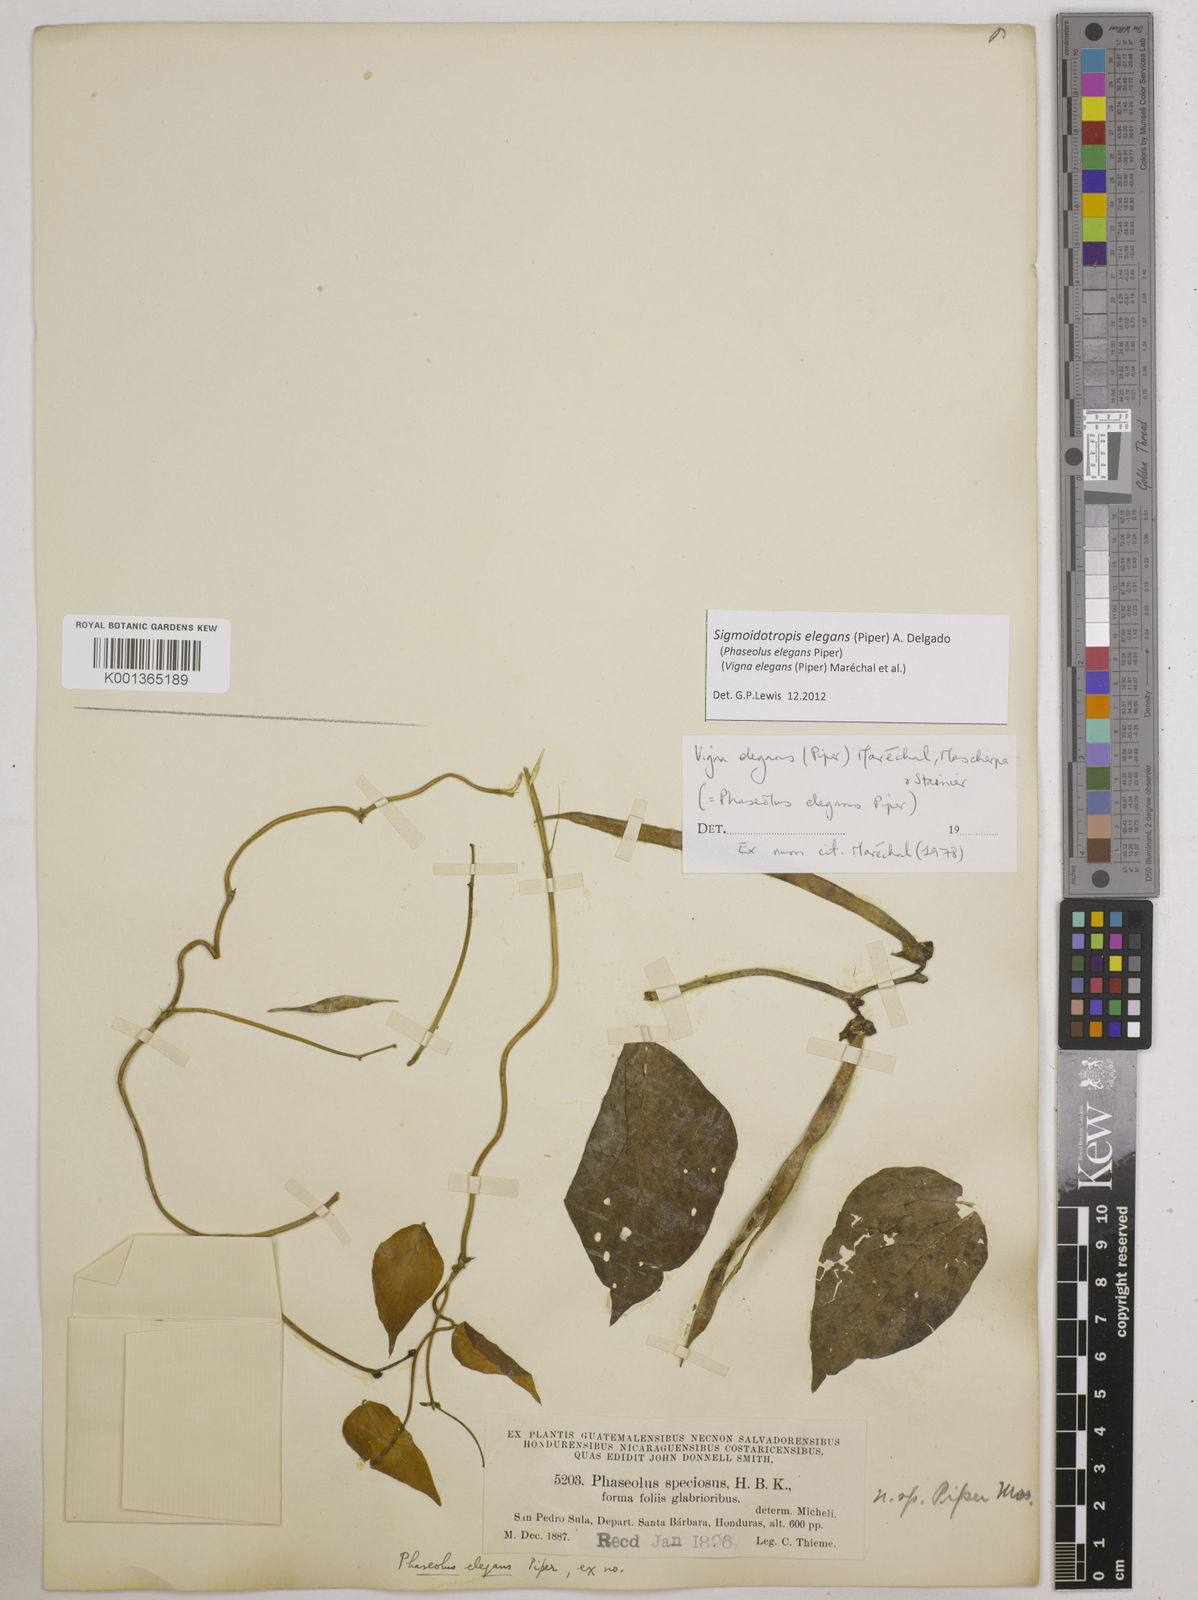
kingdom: Plantae
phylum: Tracheophyta
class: Magnoliopsida
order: Fabales
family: Fabaceae
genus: Sigmoidotropis
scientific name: Sigmoidotropis elegans
